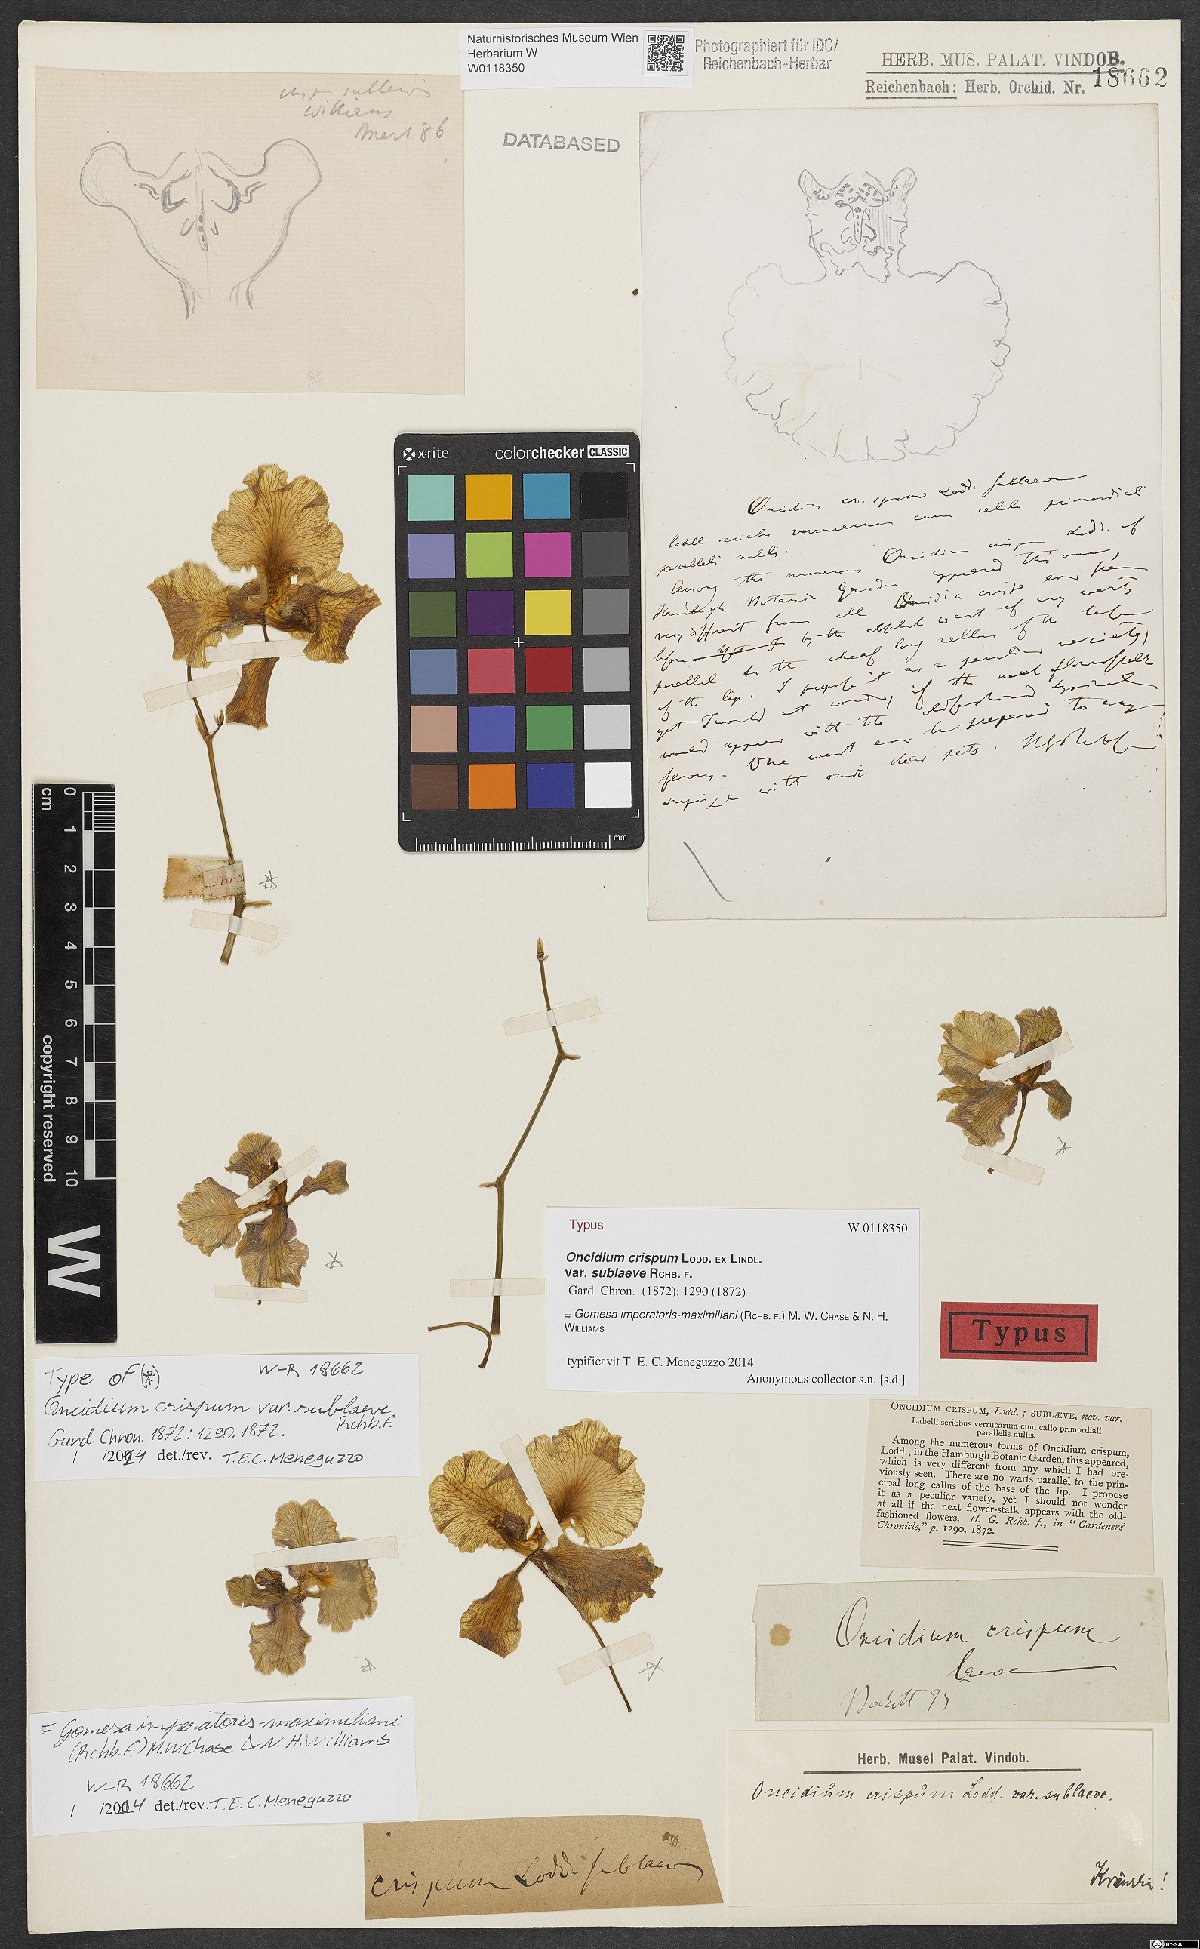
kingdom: Plantae
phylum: Tracheophyta
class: Liliopsida
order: Asparagales
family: Orchidaceae
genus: Gomesa
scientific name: Gomesa imperatoris-maximiliani
